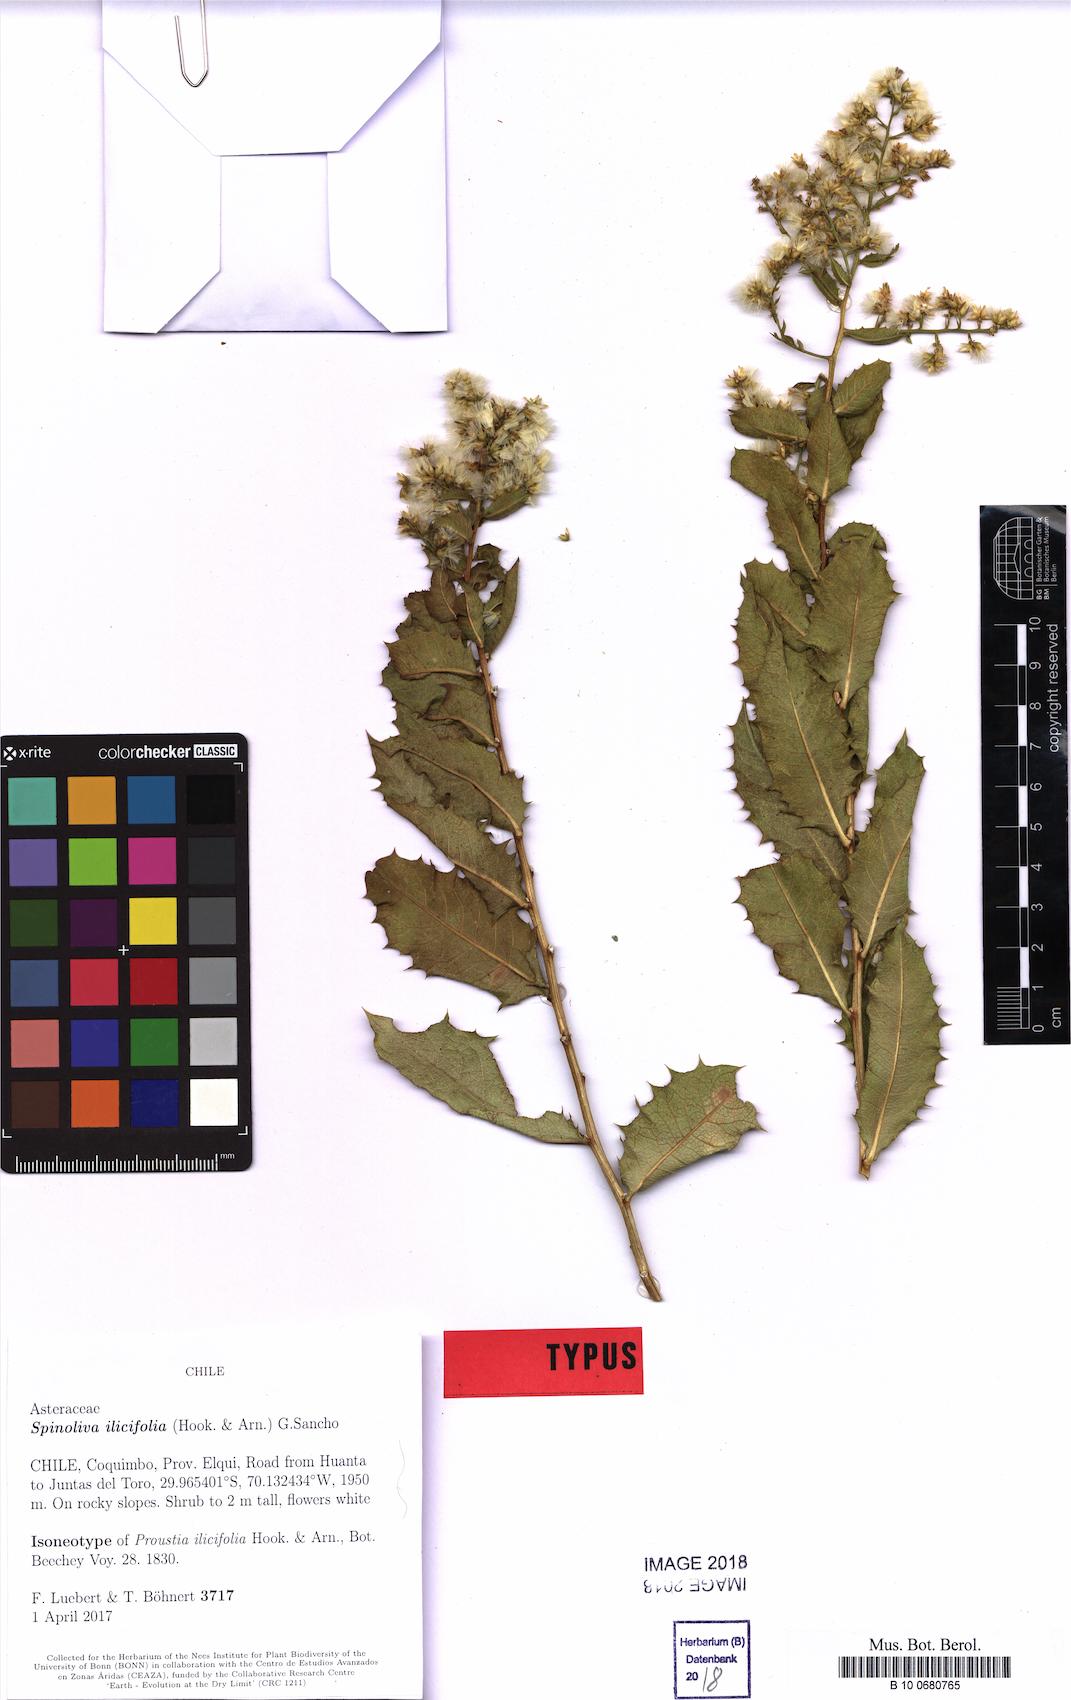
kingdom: Plantae
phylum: Tracheophyta
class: Magnoliopsida
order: Asterales
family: Asteraceae
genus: Spinoliva
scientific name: Spinoliva ilicifolia
